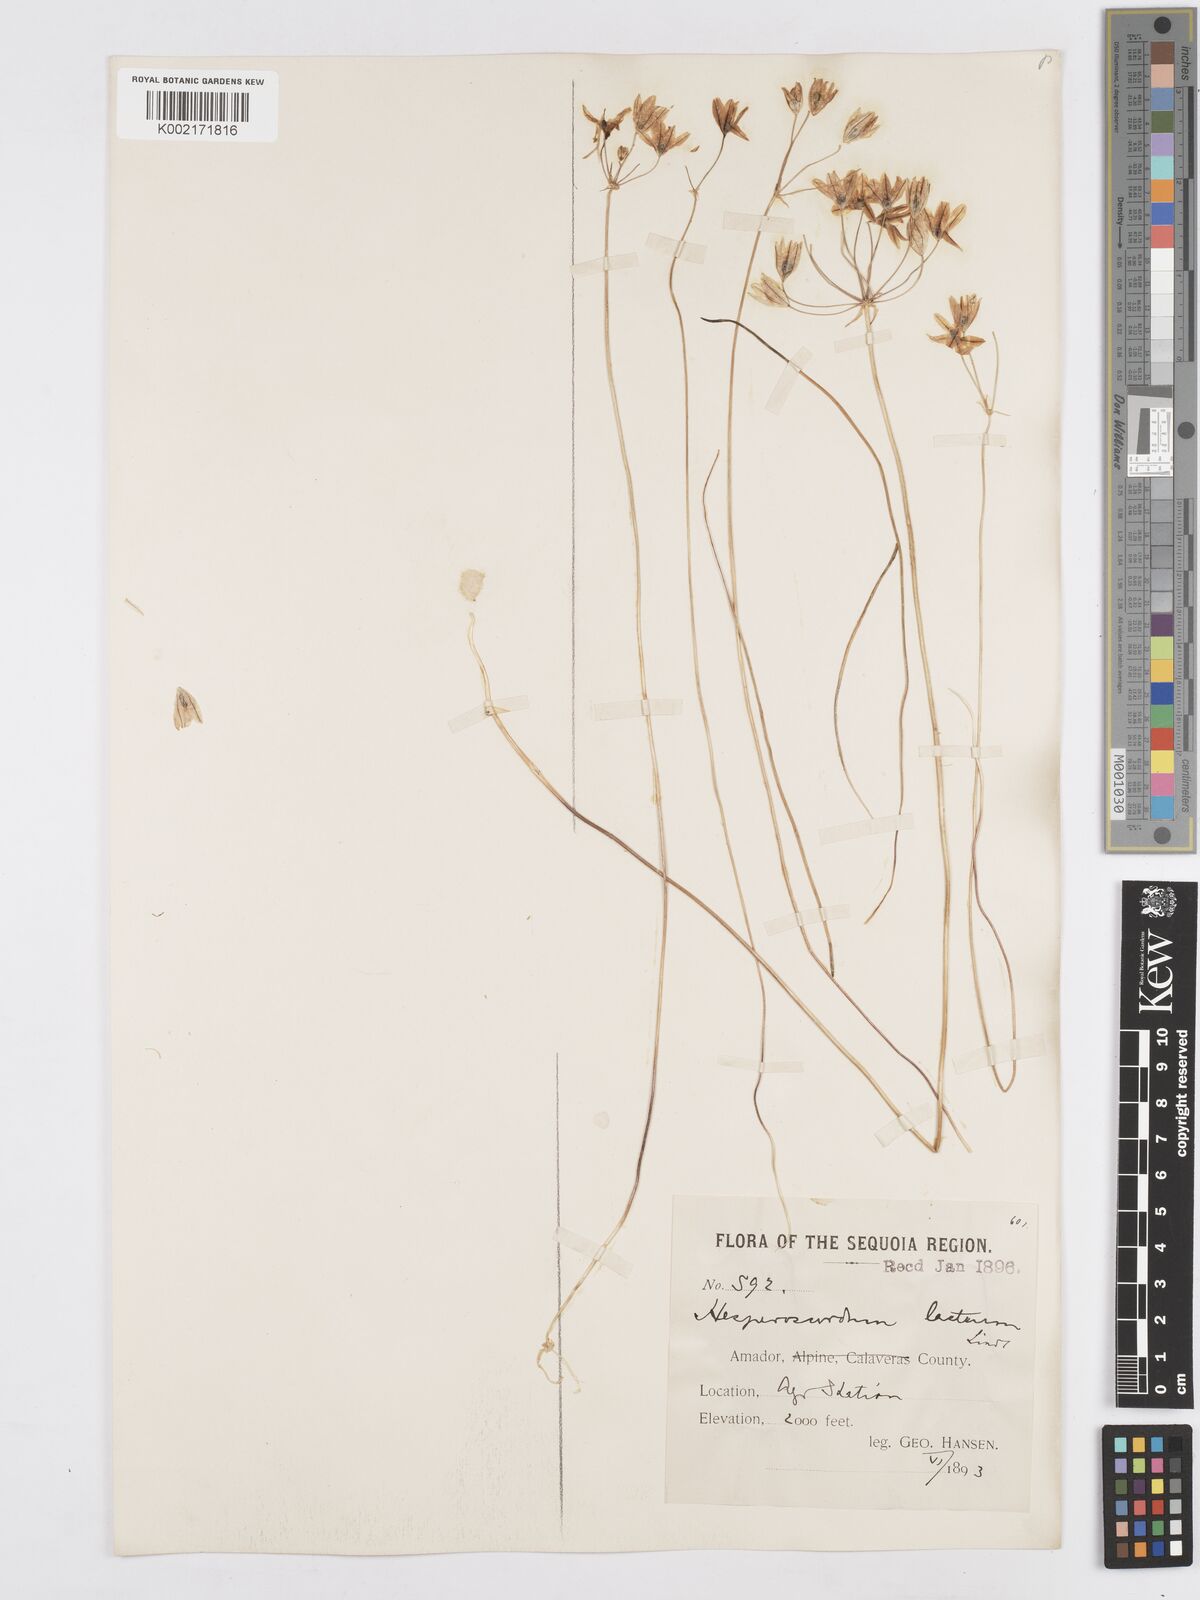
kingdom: Plantae
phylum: Tracheophyta
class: Liliopsida
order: Asparagales
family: Asparagaceae
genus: Triteleia
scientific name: Triteleia hyacinthina
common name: White brodiaea
